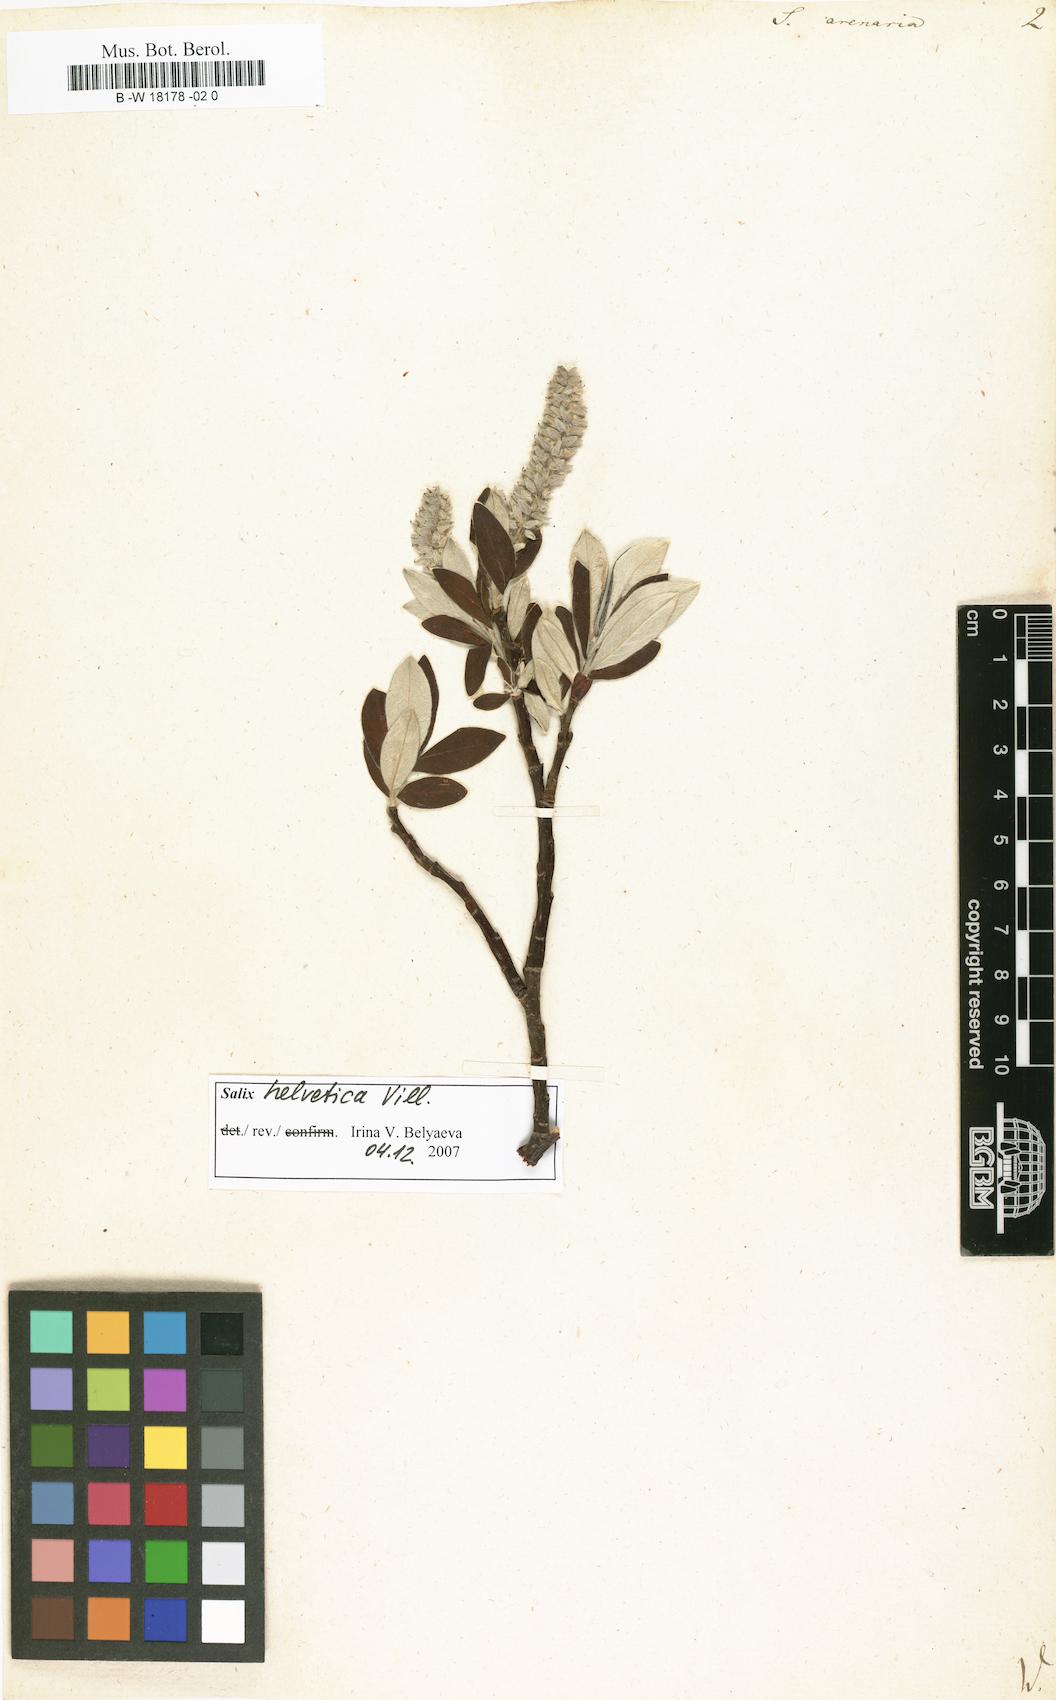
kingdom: Plantae
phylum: Tracheophyta
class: Magnoliopsida
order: Malpighiales
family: Salicaceae
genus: Salix
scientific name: Salix repens
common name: Creeping willow
